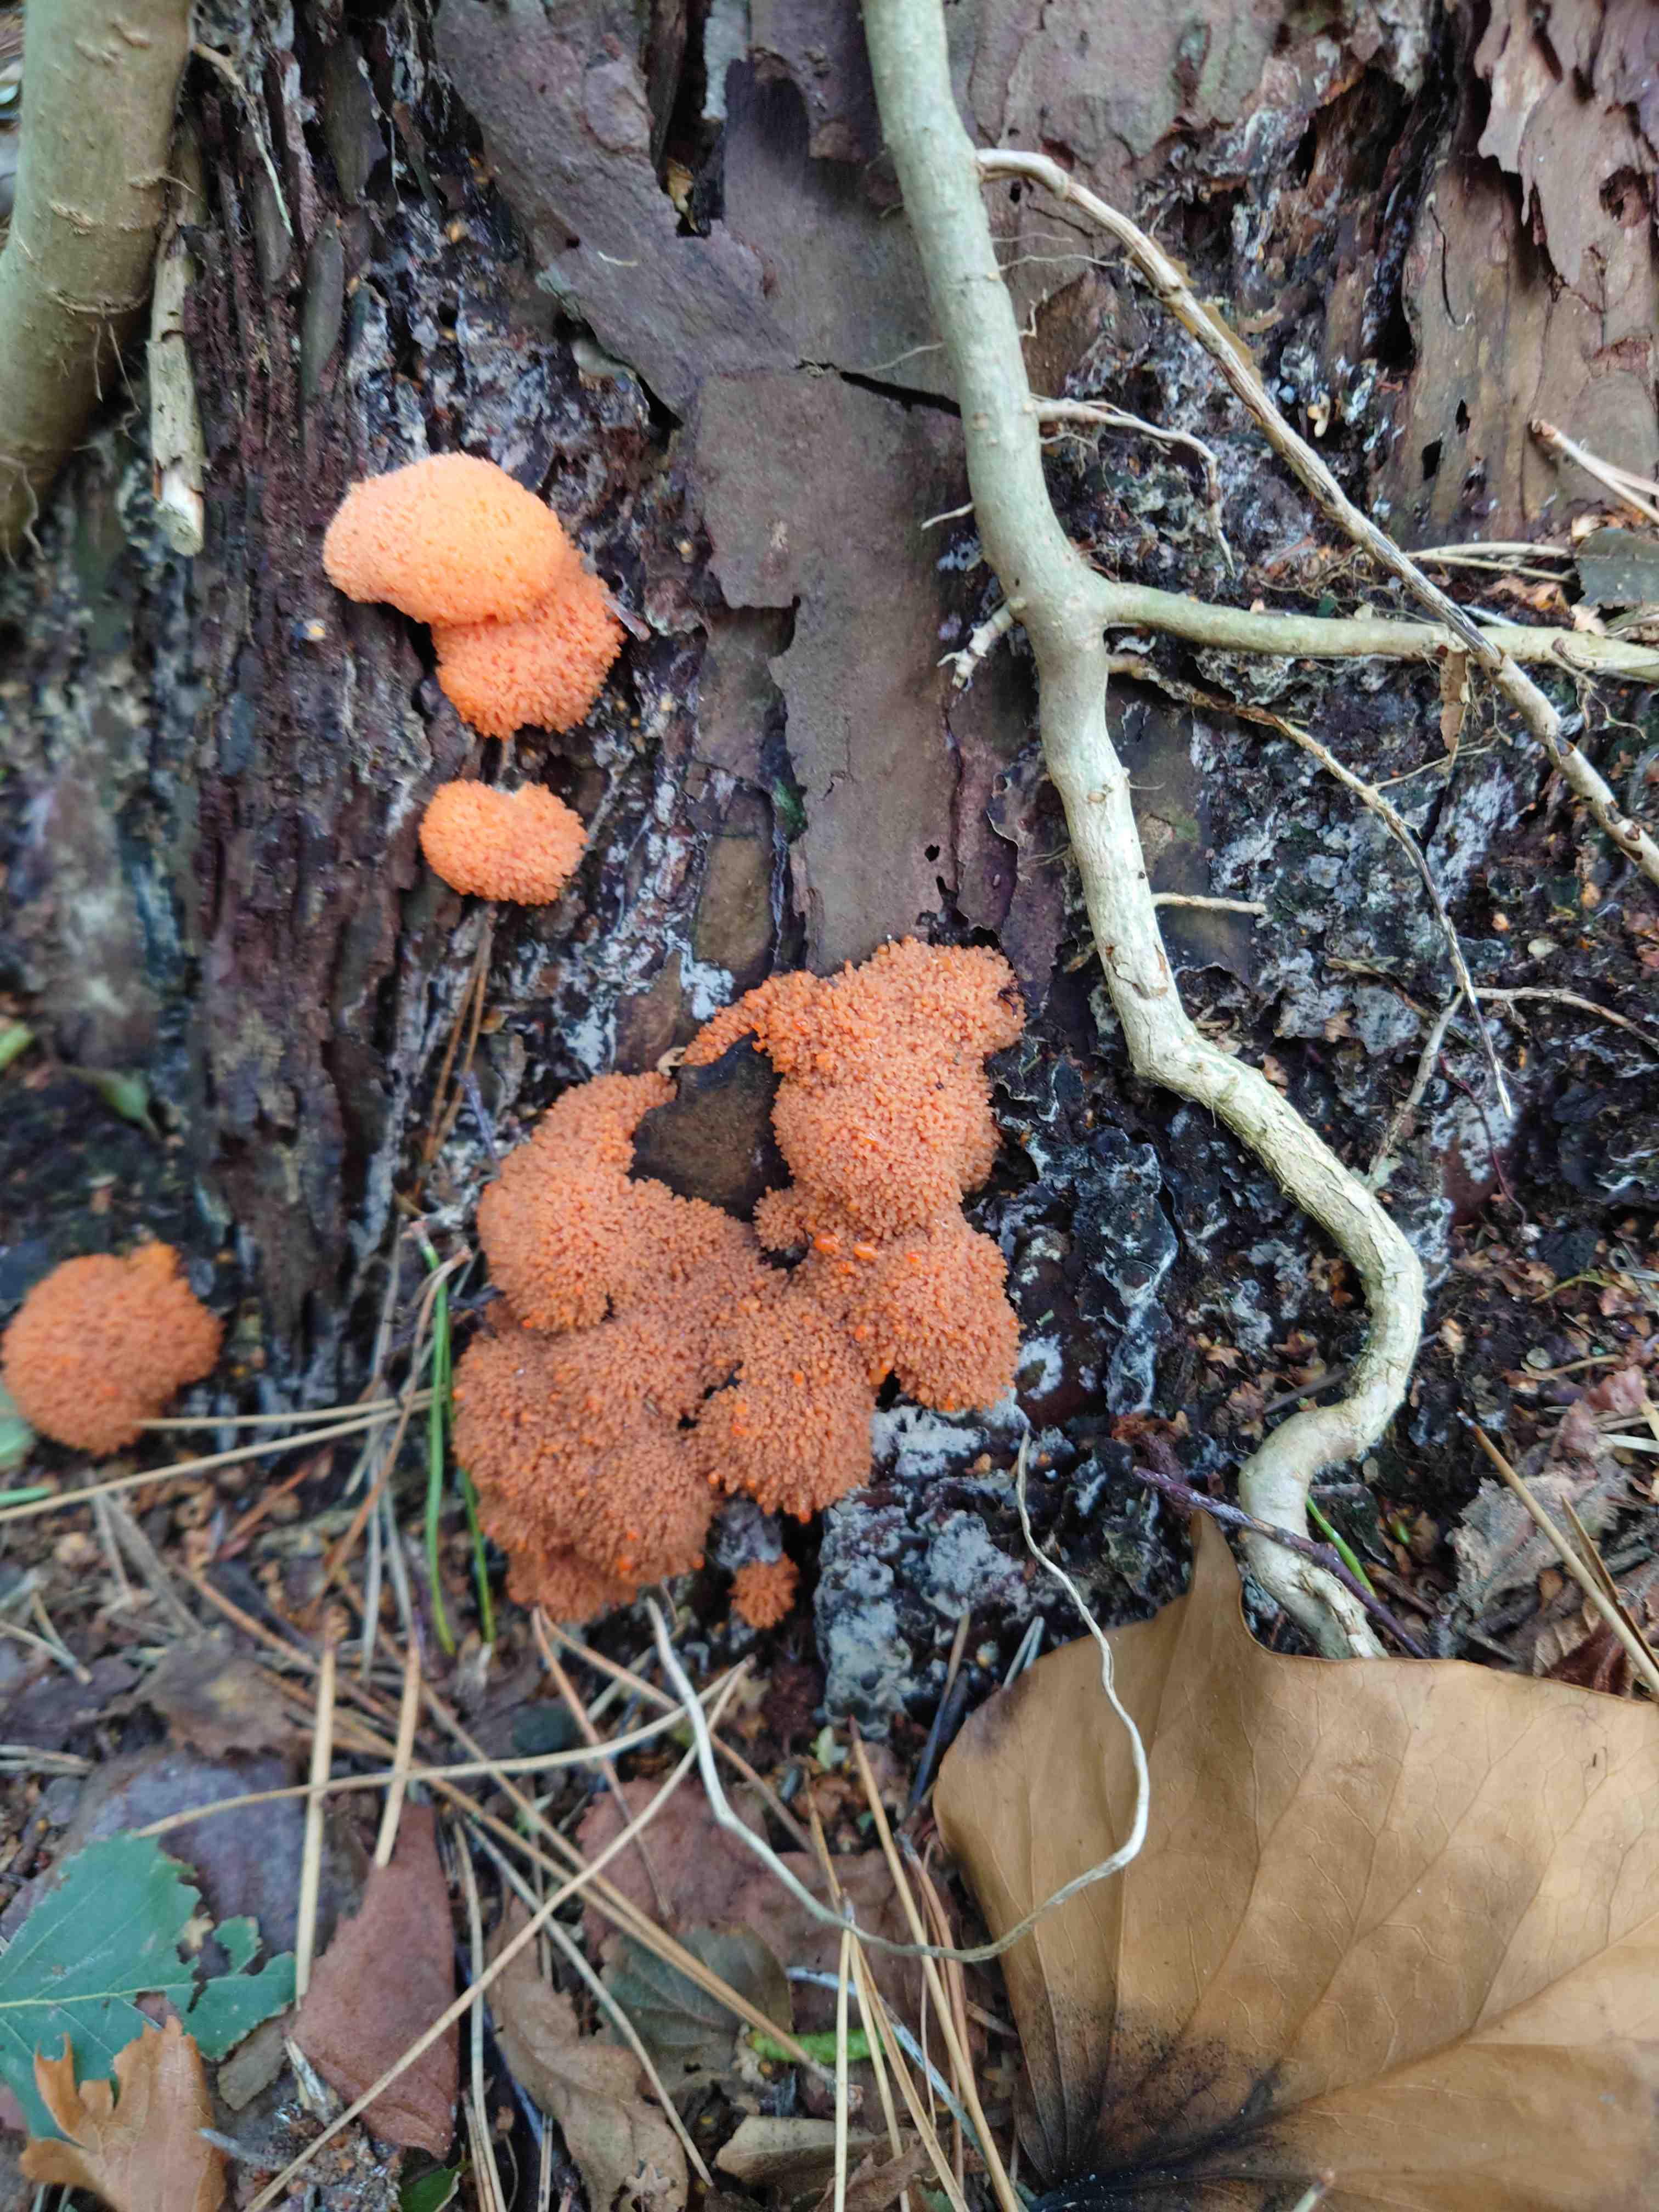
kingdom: Protozoa
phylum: Mycetozoa
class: Myxomycetes
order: Cribrariales
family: Tubiferaceae
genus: Tubifera
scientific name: Tubifera ferruginosa
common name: kanel-støvrør
